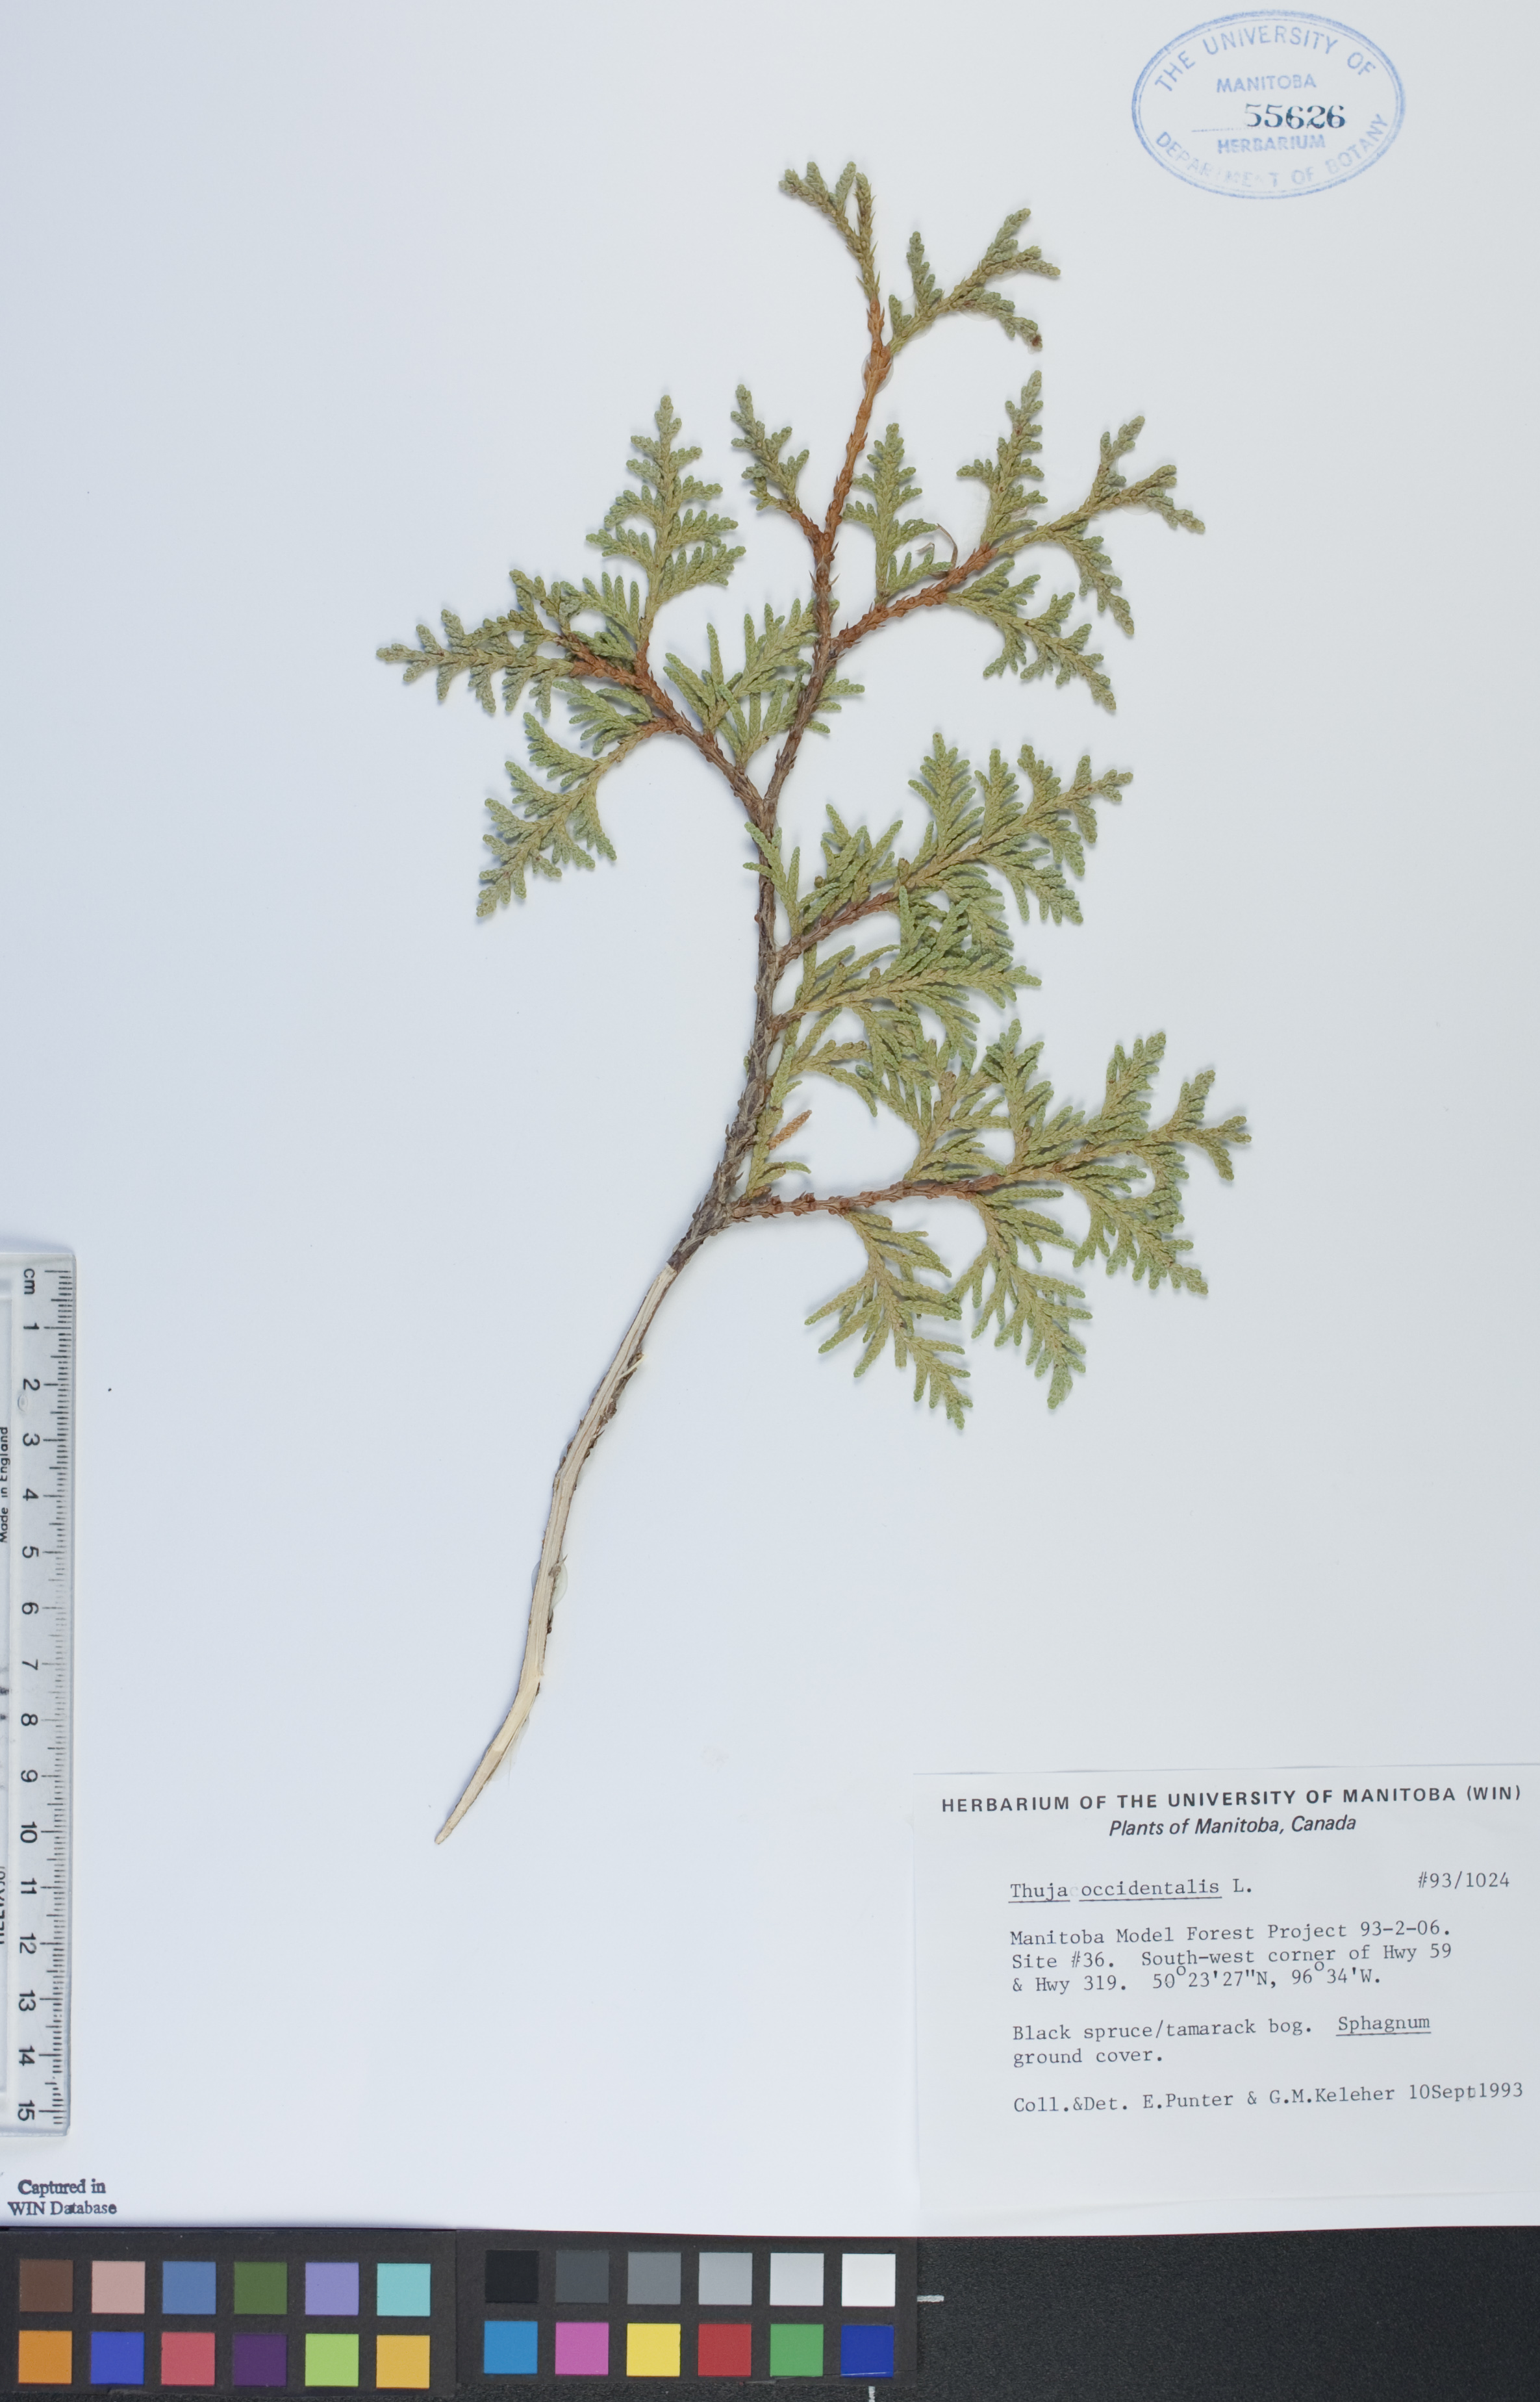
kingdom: Plantae
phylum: Tracheophyta
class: Pinopsida
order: Pinales
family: Cupressaceae
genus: Thuja
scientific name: Thuja occidentalis
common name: Northern white-cedar
